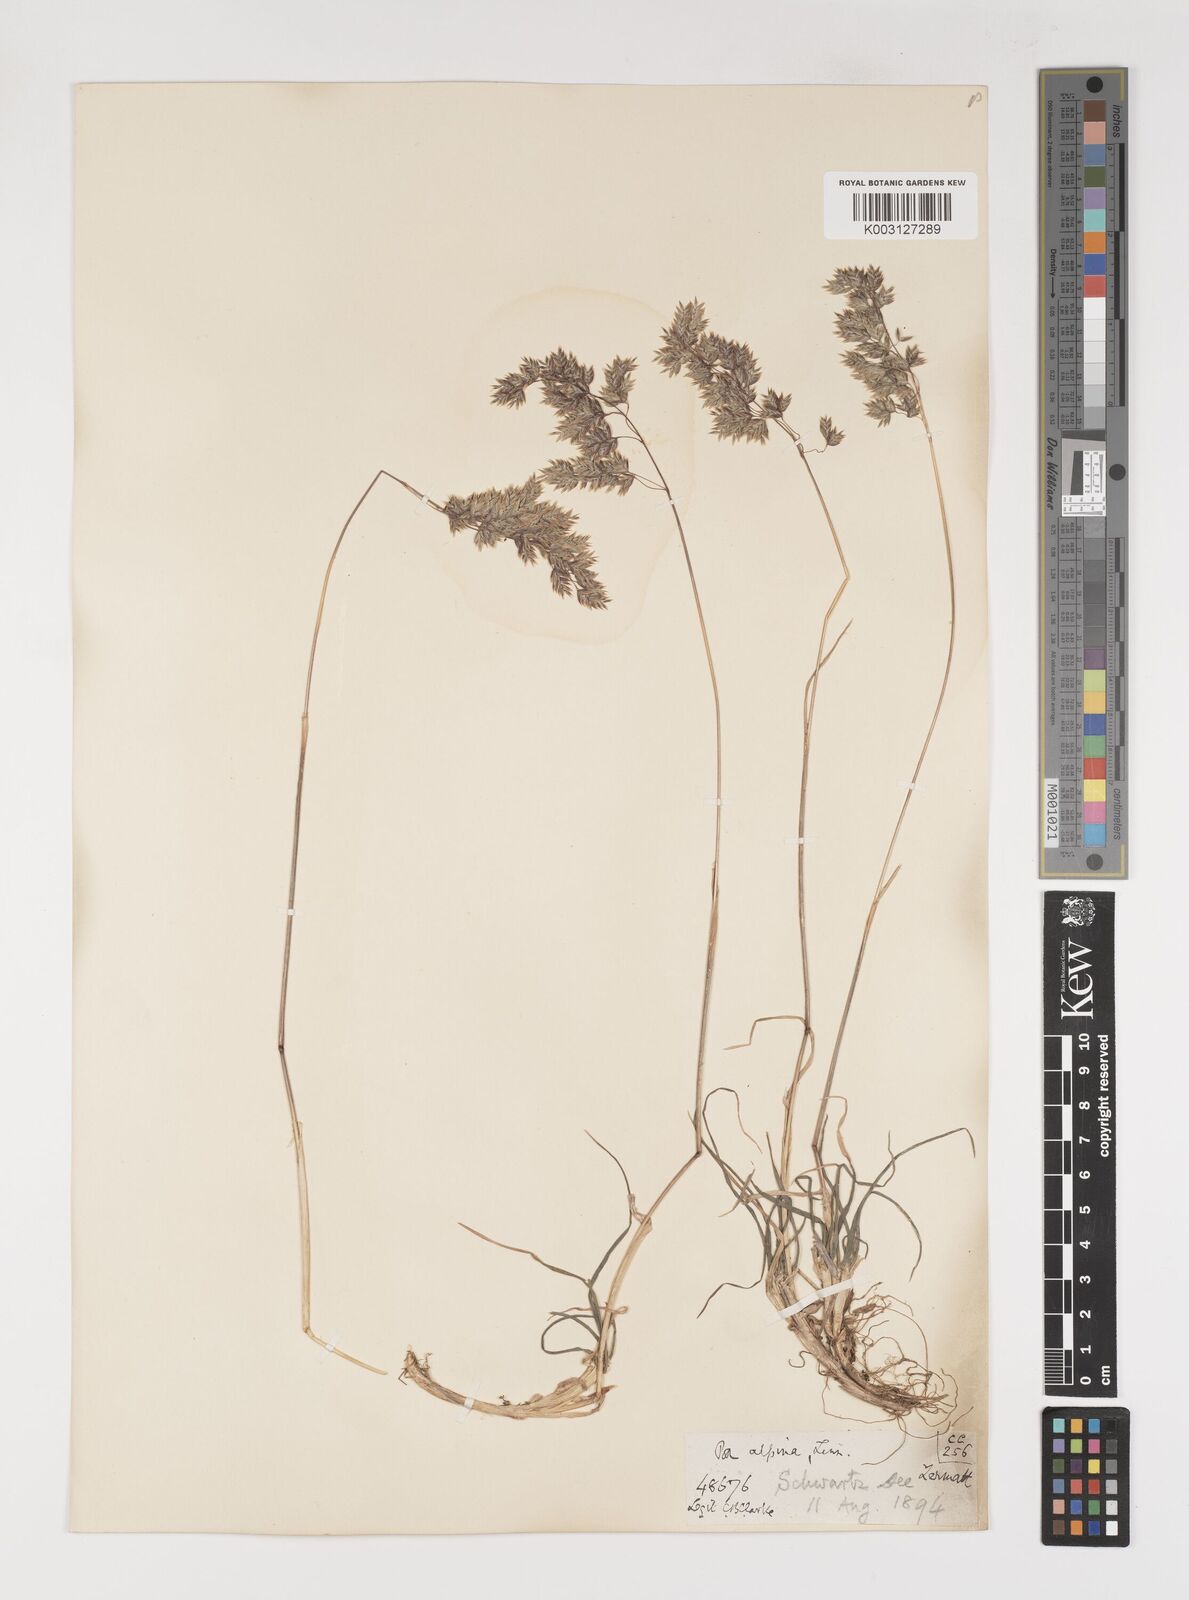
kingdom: Plantae
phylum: Tracheophyta
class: Liliopsida
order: Poales
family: Poaceae
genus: Poa
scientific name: Poa alpina
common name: Alpine bluegrass
